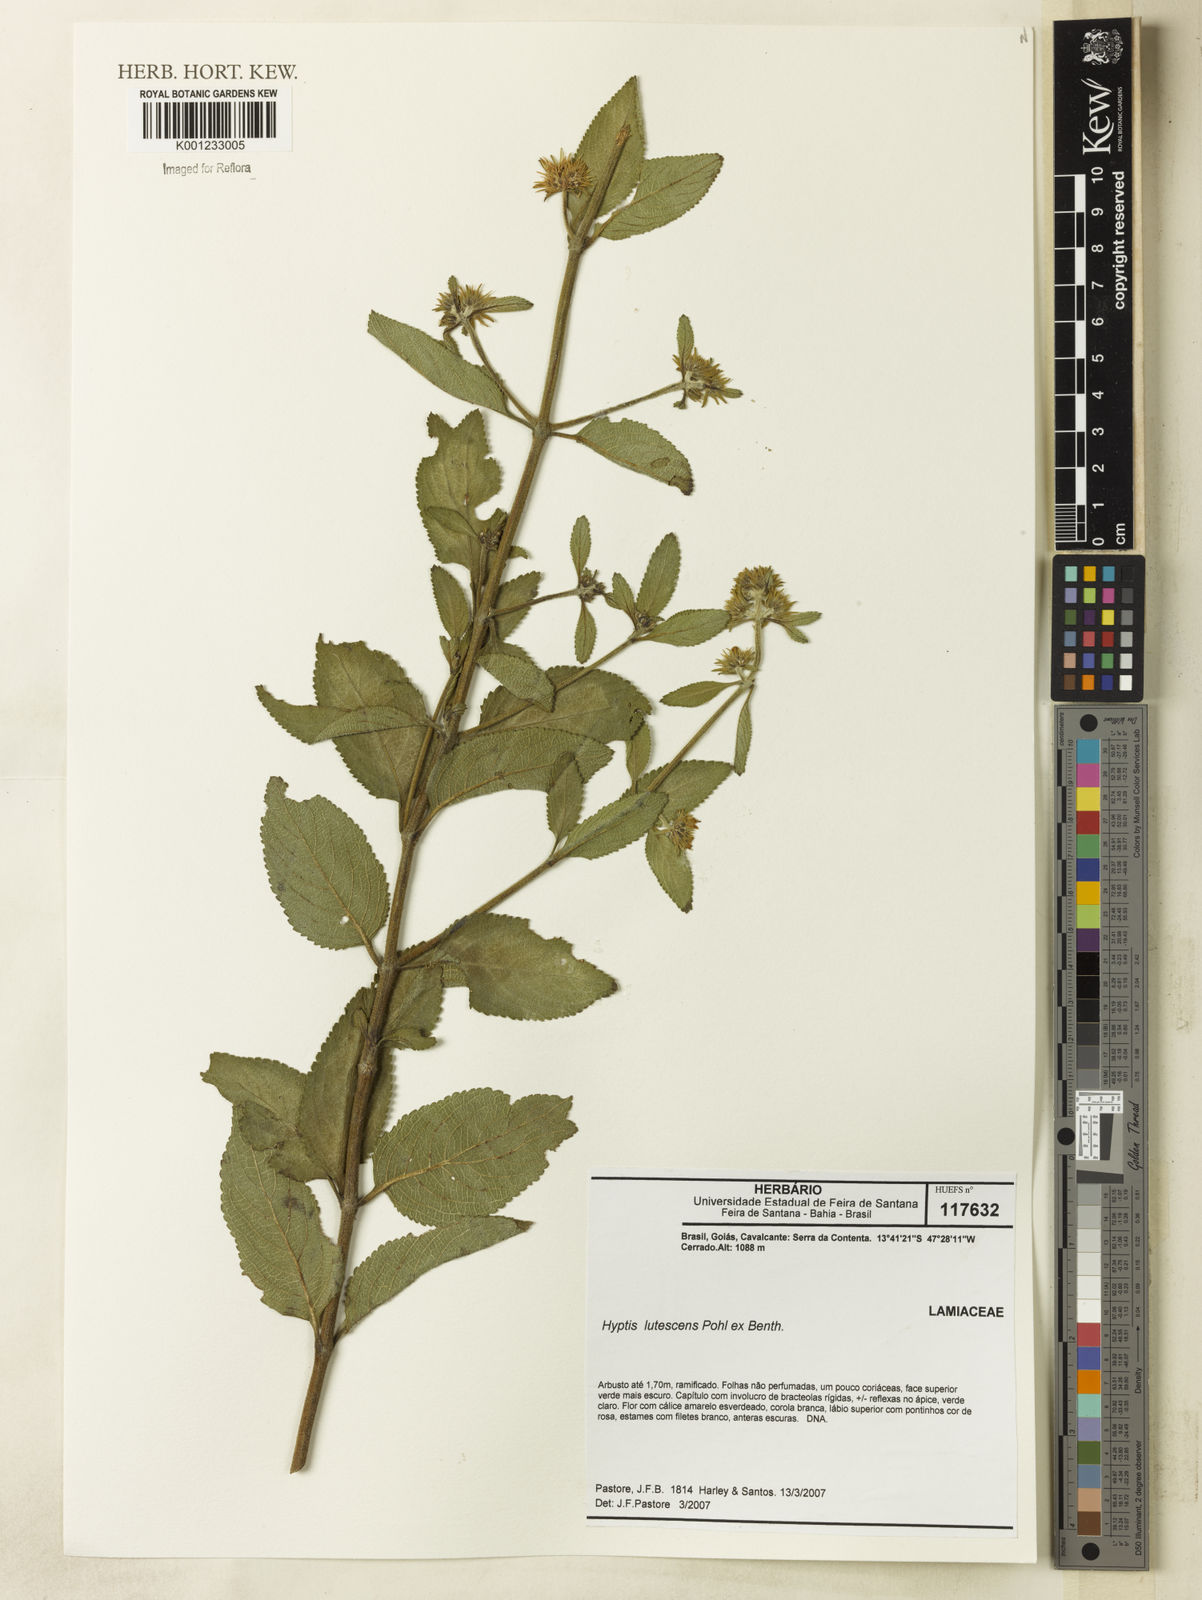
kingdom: Plantae
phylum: Tracheophyta
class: Magnoliopsida
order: Lamiales
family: Lamiaceae
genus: Hyptis
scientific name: Hyptis lutescens
